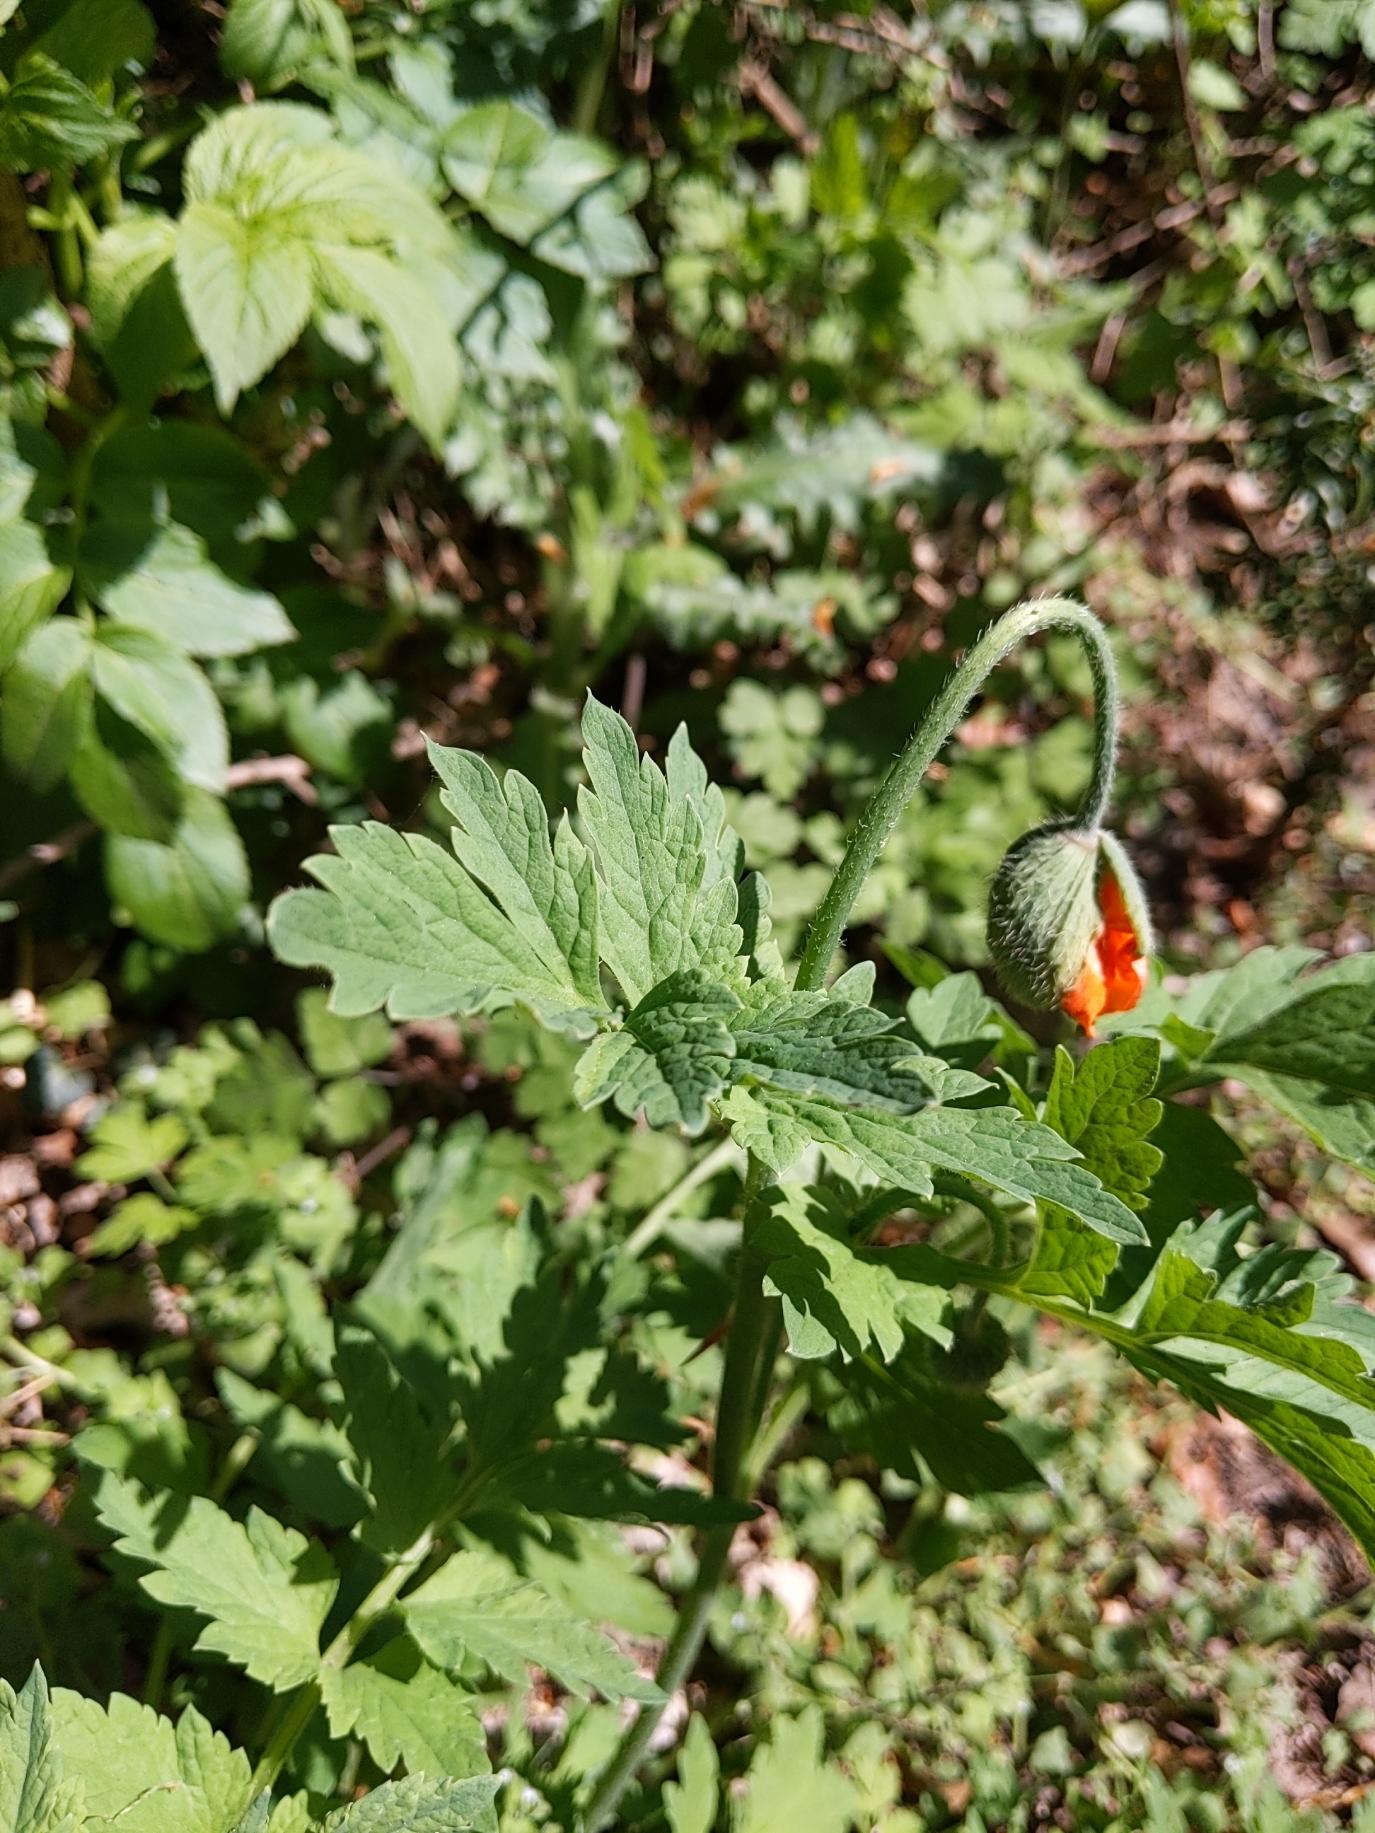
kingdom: Plantae
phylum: Tracheophyta
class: Magnoliopsida
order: Ranunculales
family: Papaveraceae
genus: Papaver
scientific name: Papaver cambricum
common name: Skov-valmue
